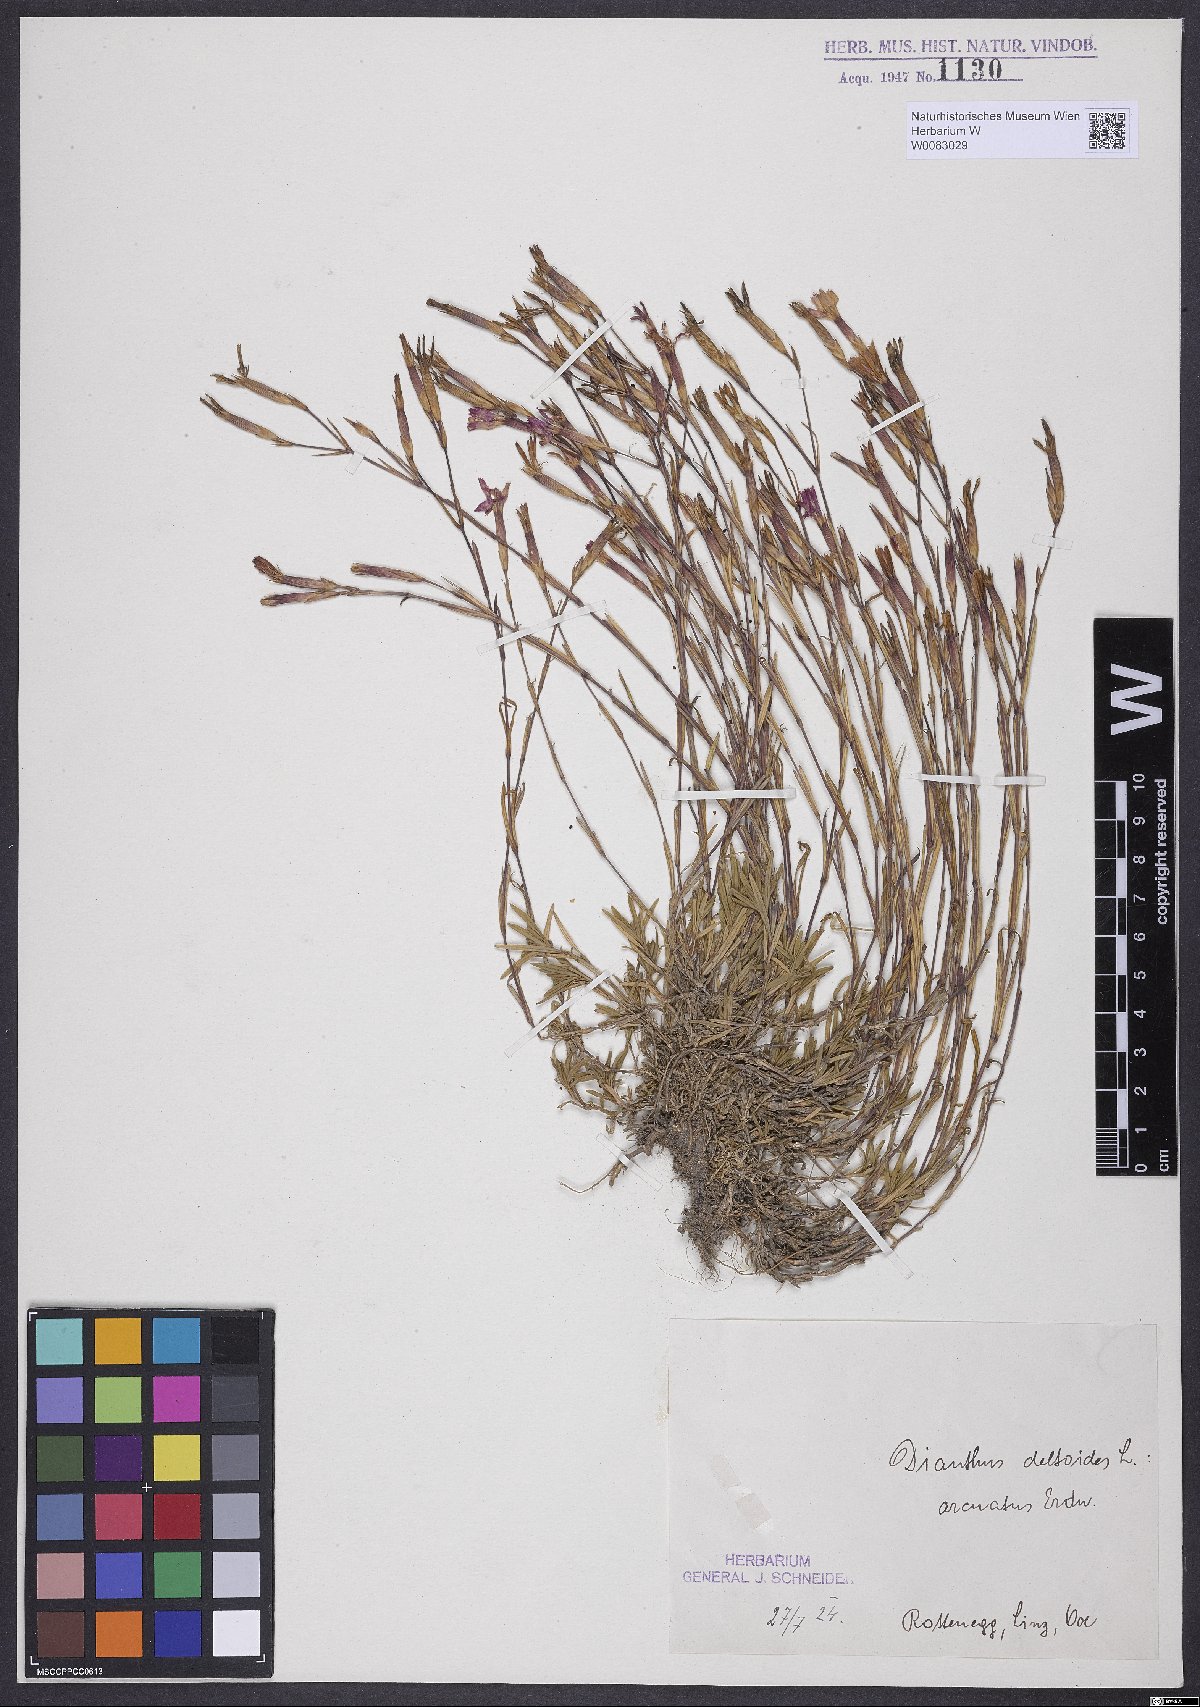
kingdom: Plantae
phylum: Tracheophyta
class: Magnoliopsida
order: Caryophyllales
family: Caryophyllaceae
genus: Dianthus
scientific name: Dianthus deltoides
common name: Maiden pink
